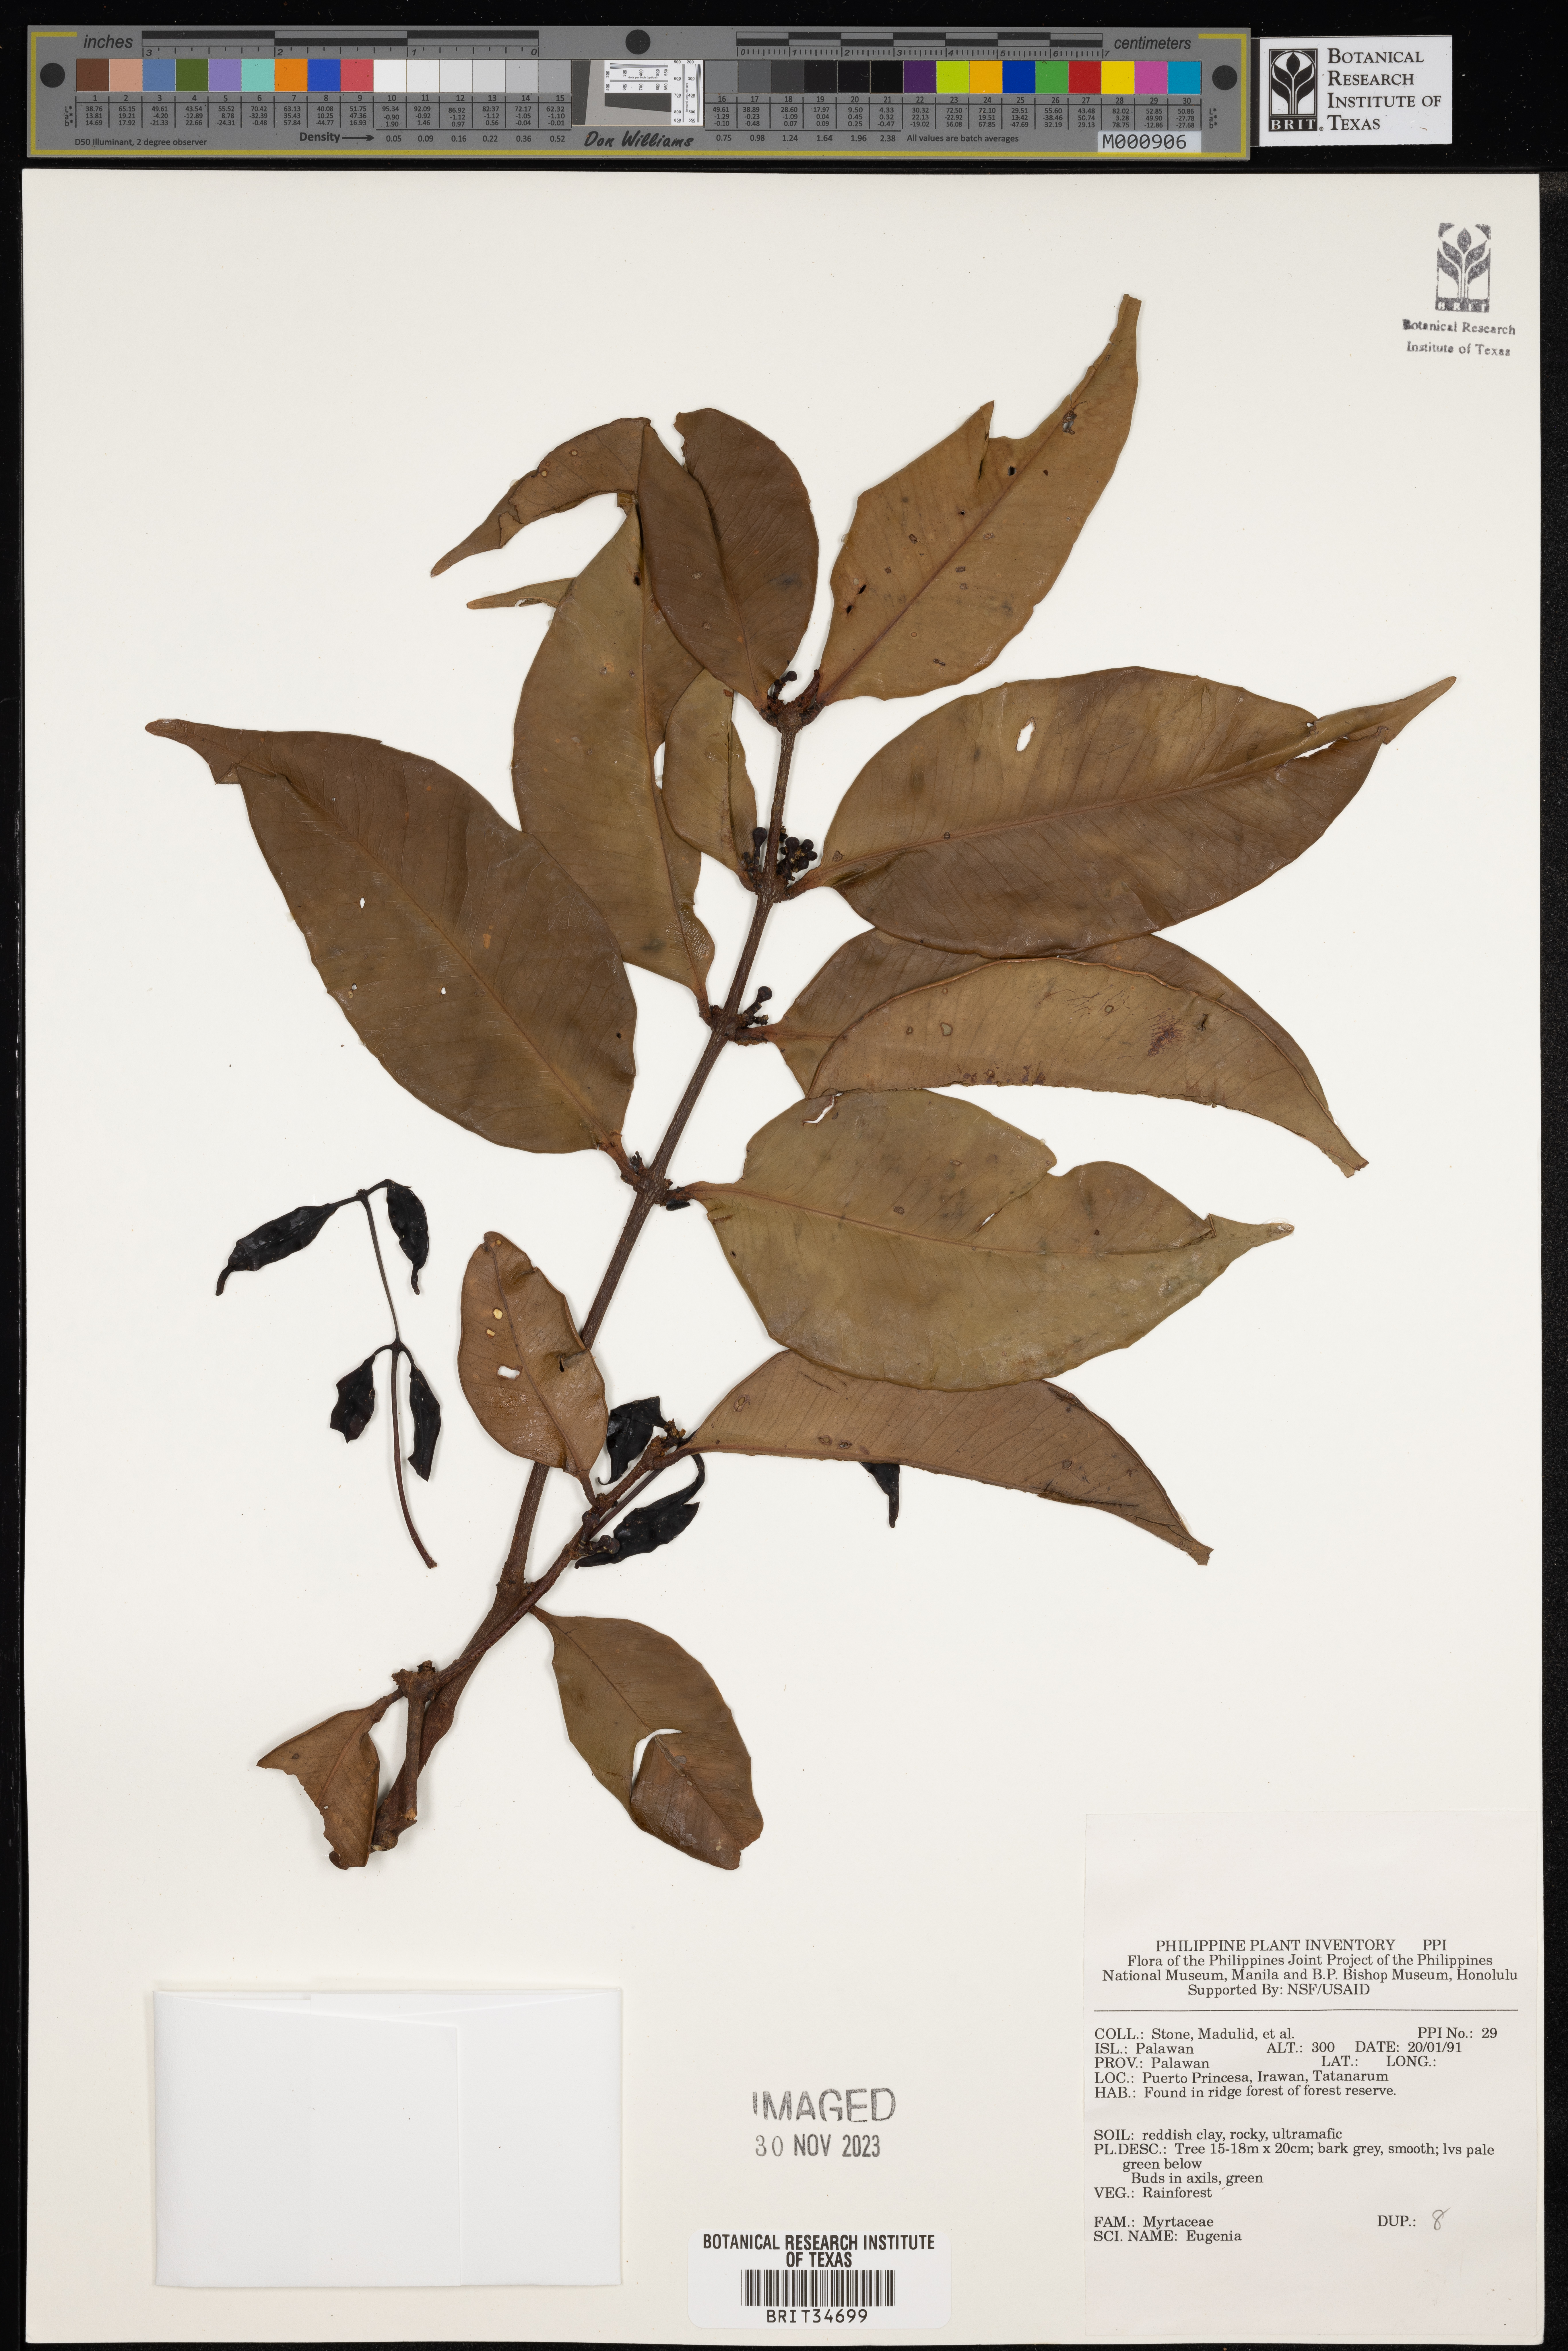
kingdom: Plantae
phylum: Tracheophyta
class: Magnoliopsida
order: Myrtales
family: Myrtaceae
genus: Eugenia
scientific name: Eugenia
